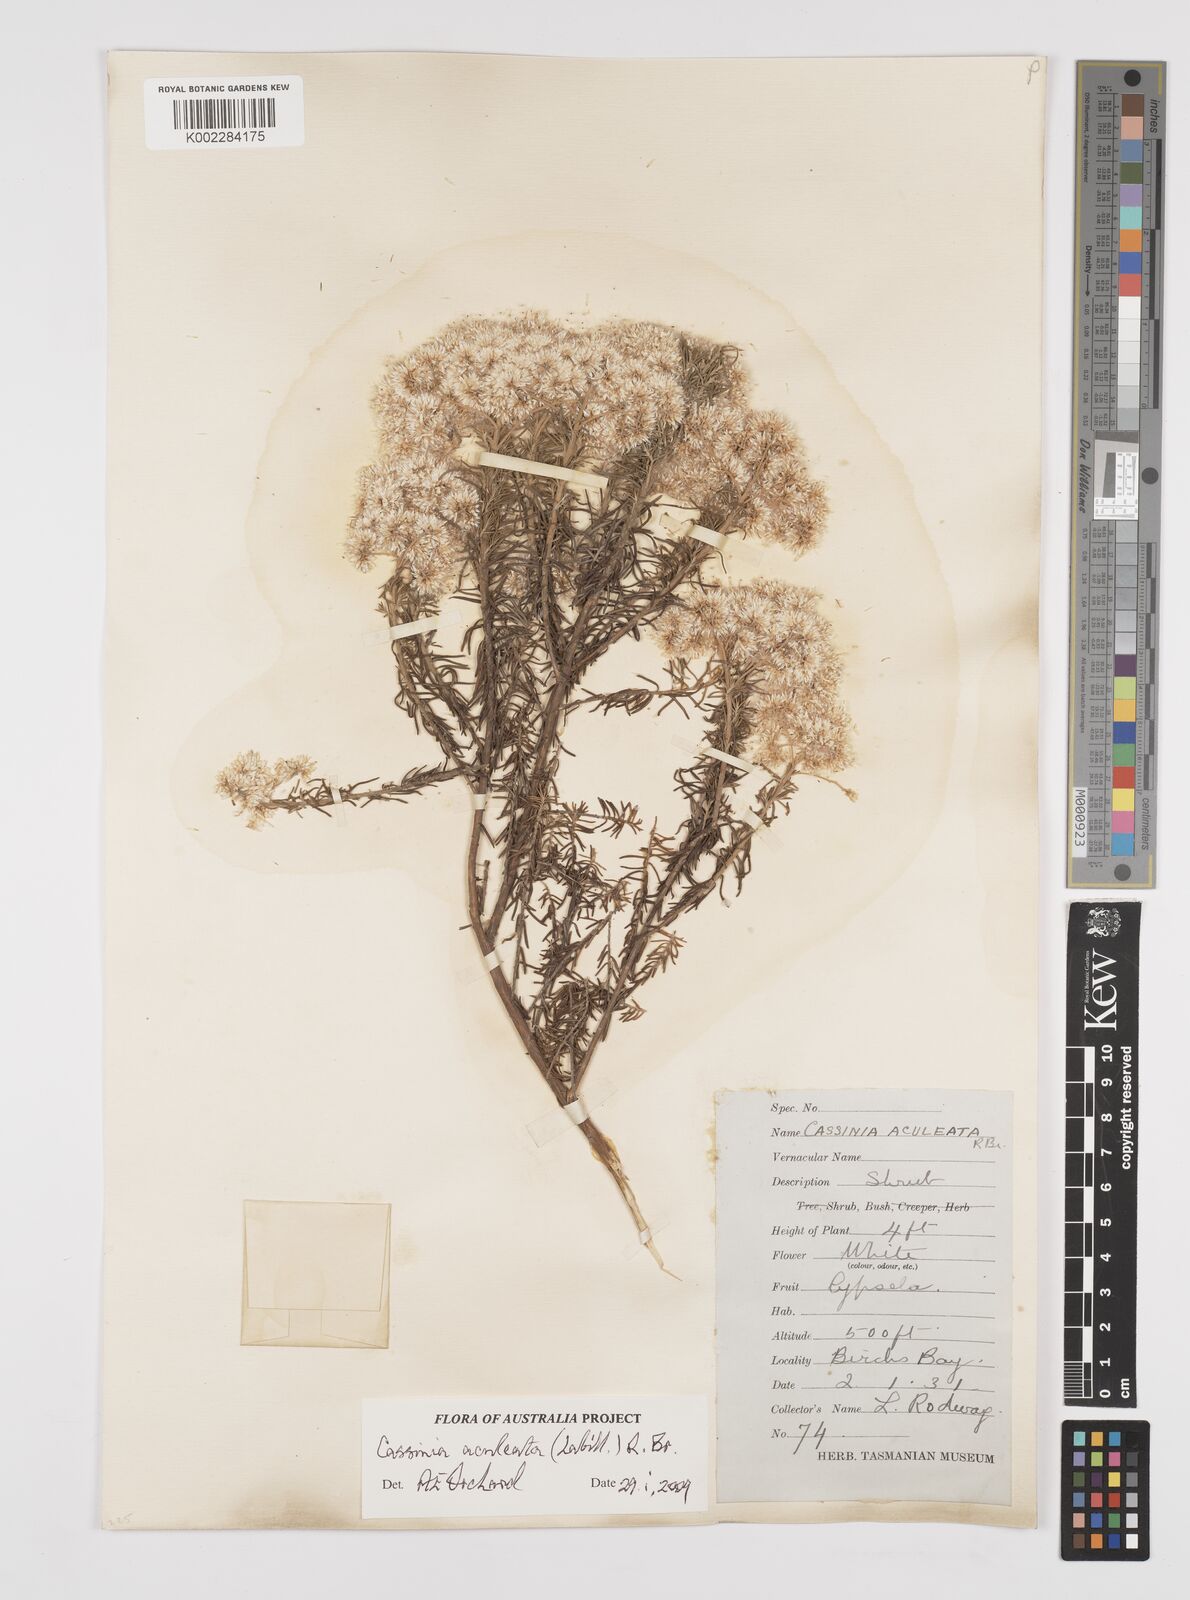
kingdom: Plantae
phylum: Tracheophyta
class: Magnoliopsida
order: Asterales
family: Asteraceae
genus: Cassinia
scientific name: Cassinia aculeata
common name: Australian tauhinu
